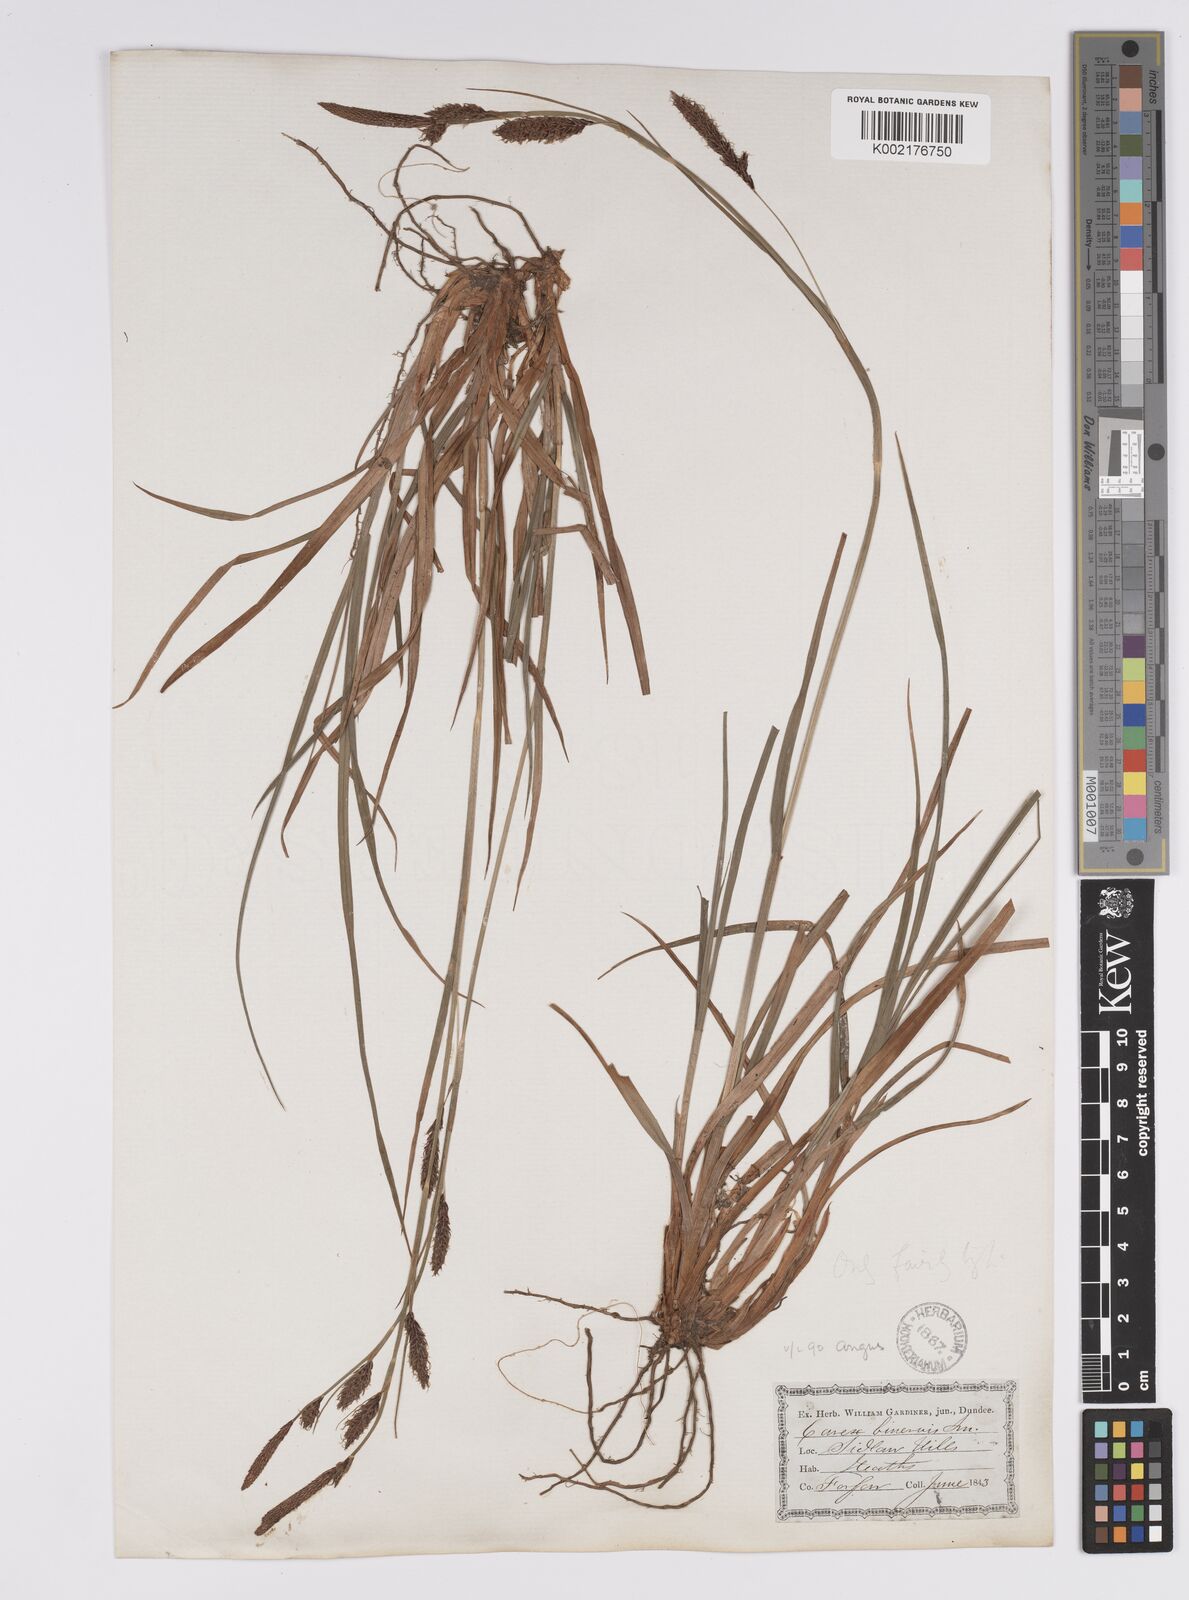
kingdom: Plantae
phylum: Tracheophyta
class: Liliopsida
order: Poales
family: Cyperaceae
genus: Carex
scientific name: Carex binervis
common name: Green-ribbed sedge
